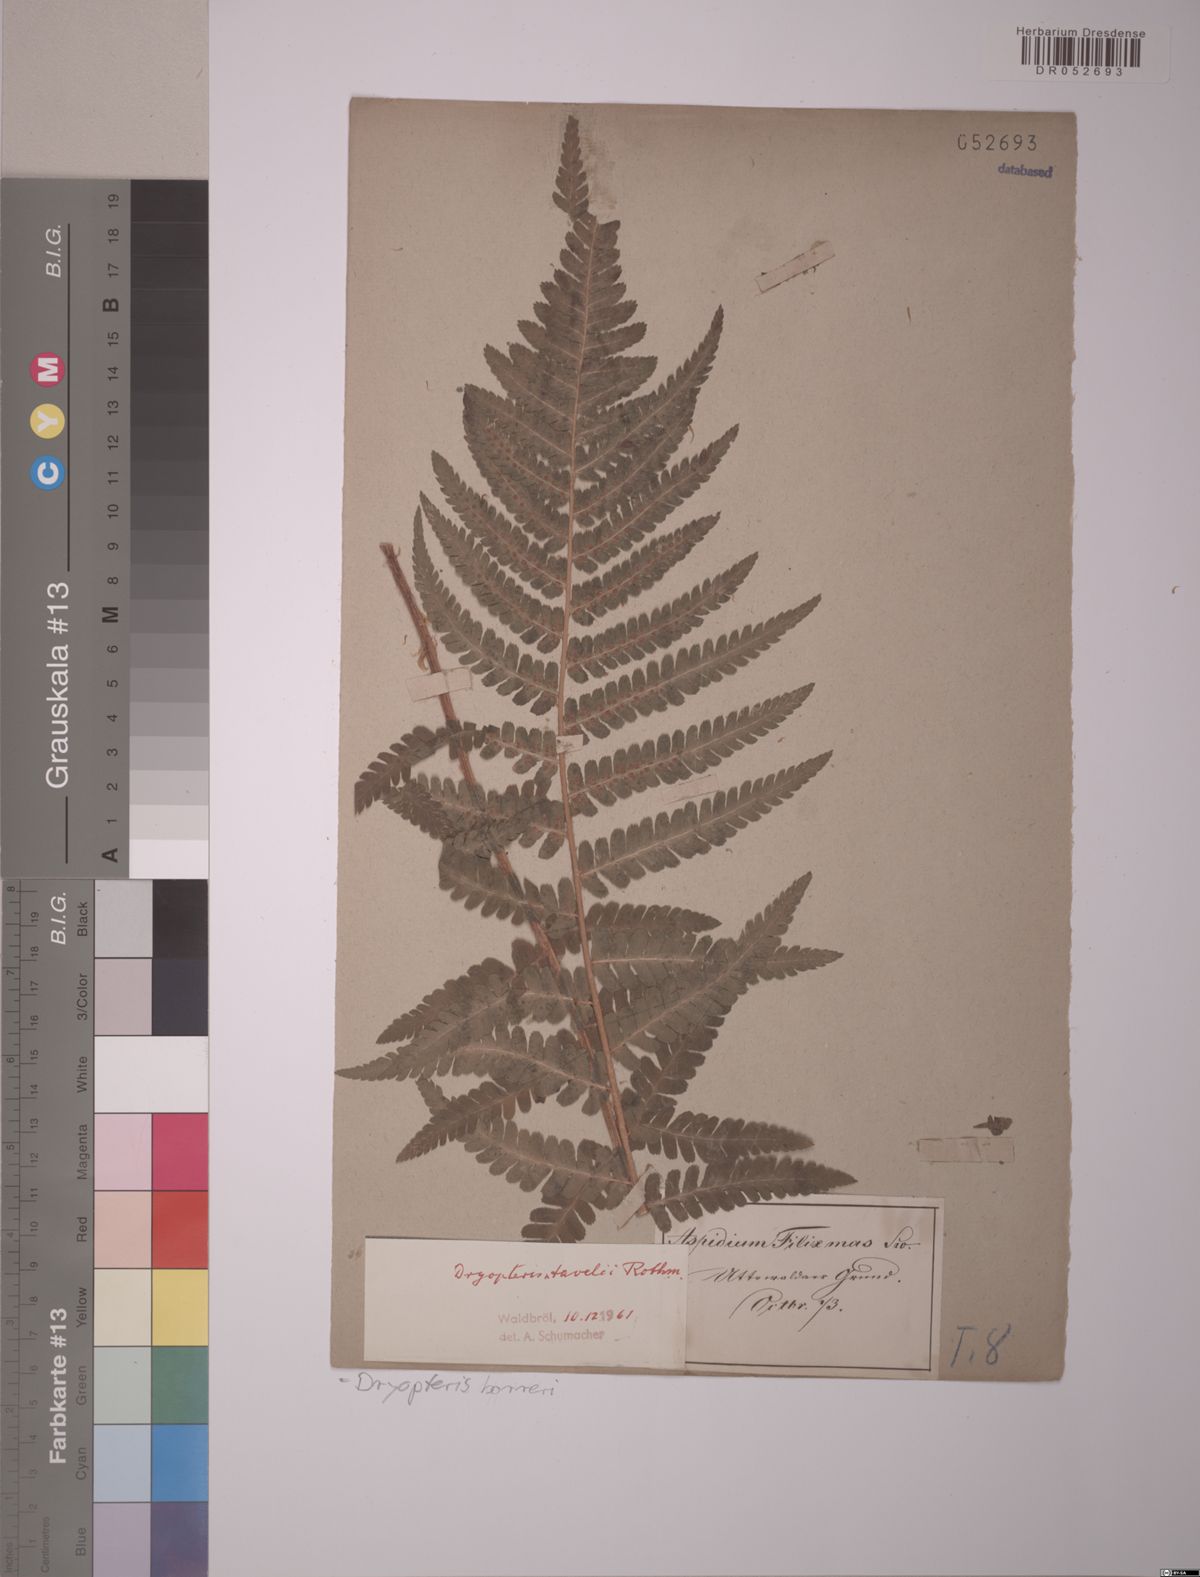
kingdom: Plantae
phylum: Tracheophyta
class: Polypodiopsida
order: Polypodiales
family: Dryopteridaceae
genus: Dryopteris
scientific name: Dryopteris borreri
